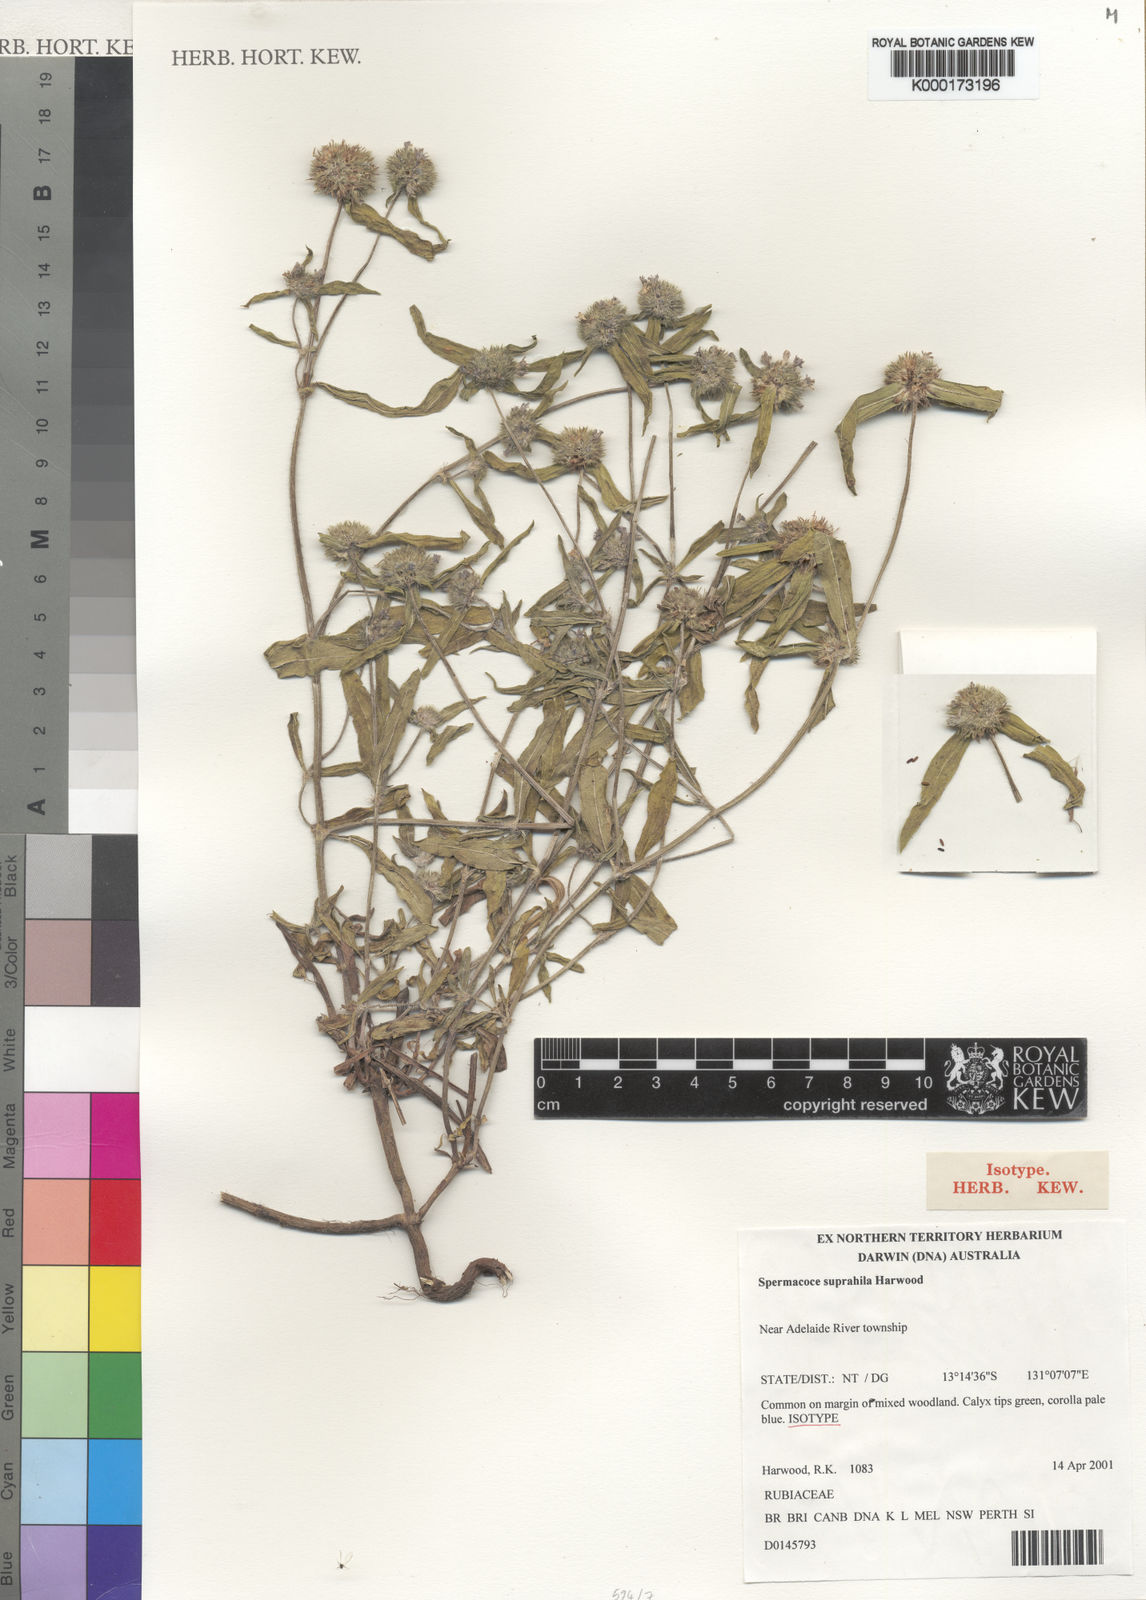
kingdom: Plantae
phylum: Tracheophyta
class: Magnoliopsida
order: Gentianales
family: Rubiaceae
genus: Spermacoce
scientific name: Spermacoce suprahila
